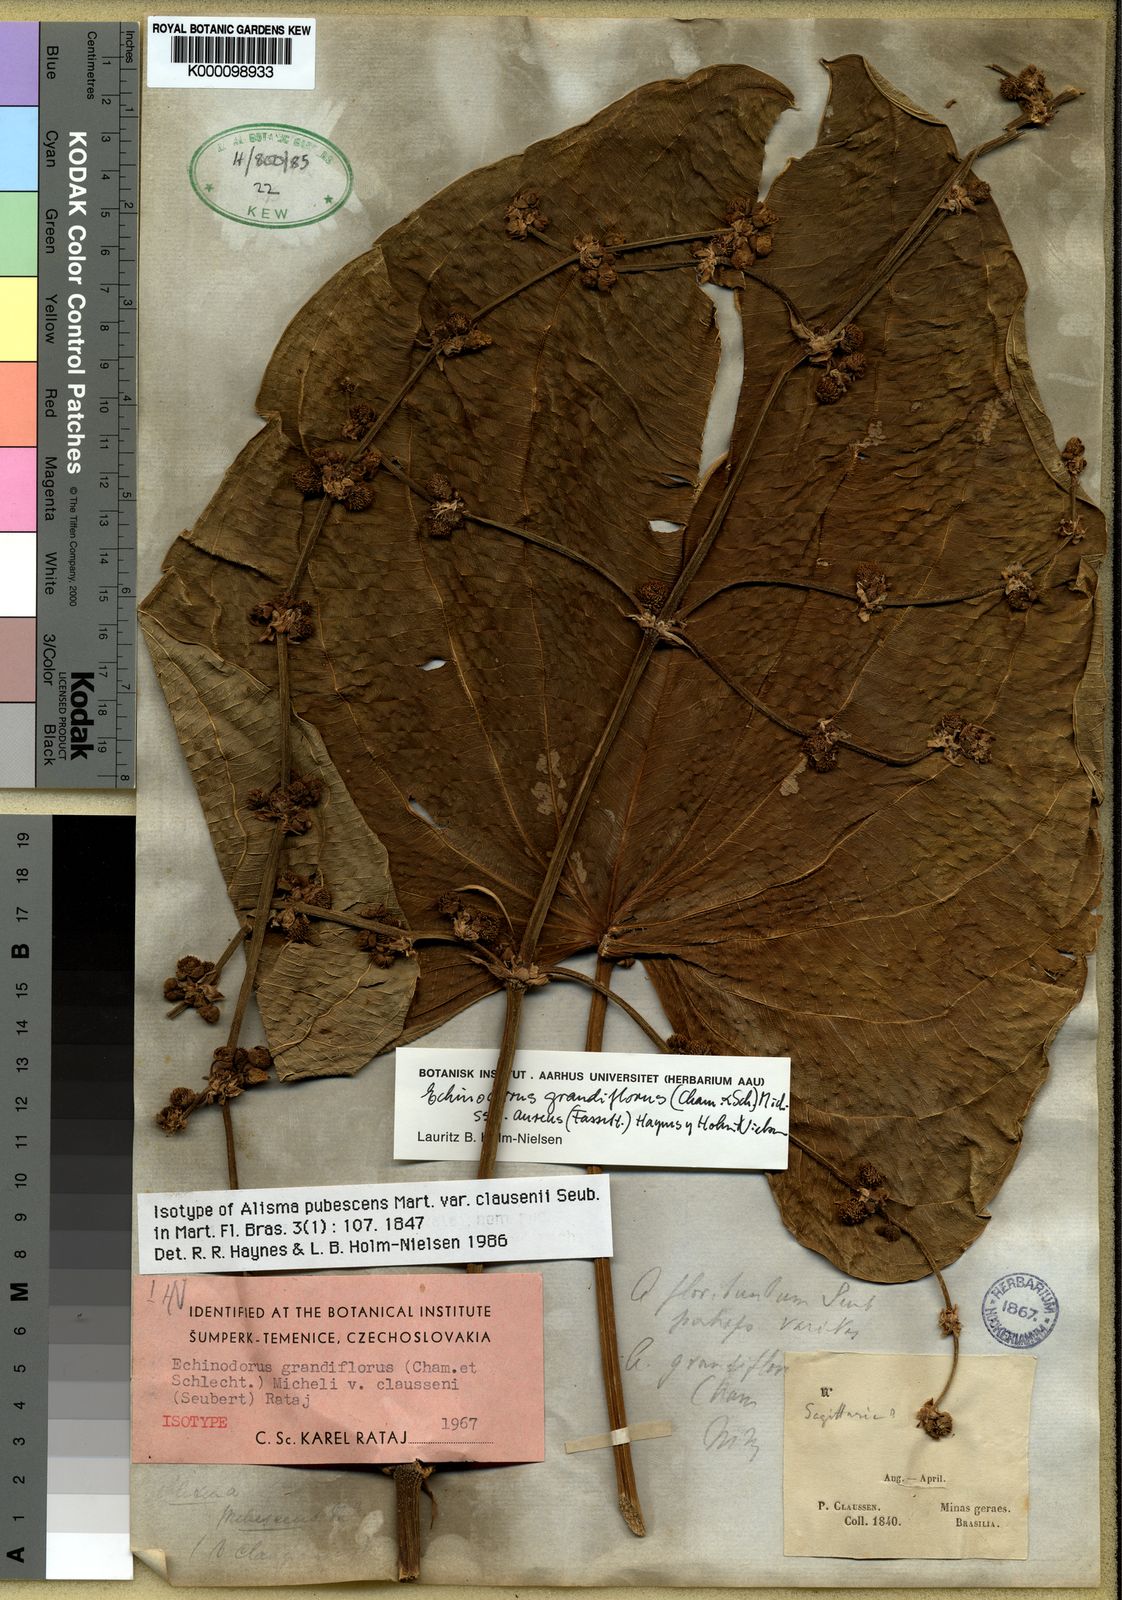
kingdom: Plantae
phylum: Tracheophyta
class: Liliopsida
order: Alismatales
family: Alismataceae
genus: Aquarius
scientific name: Aquarius floribundus
